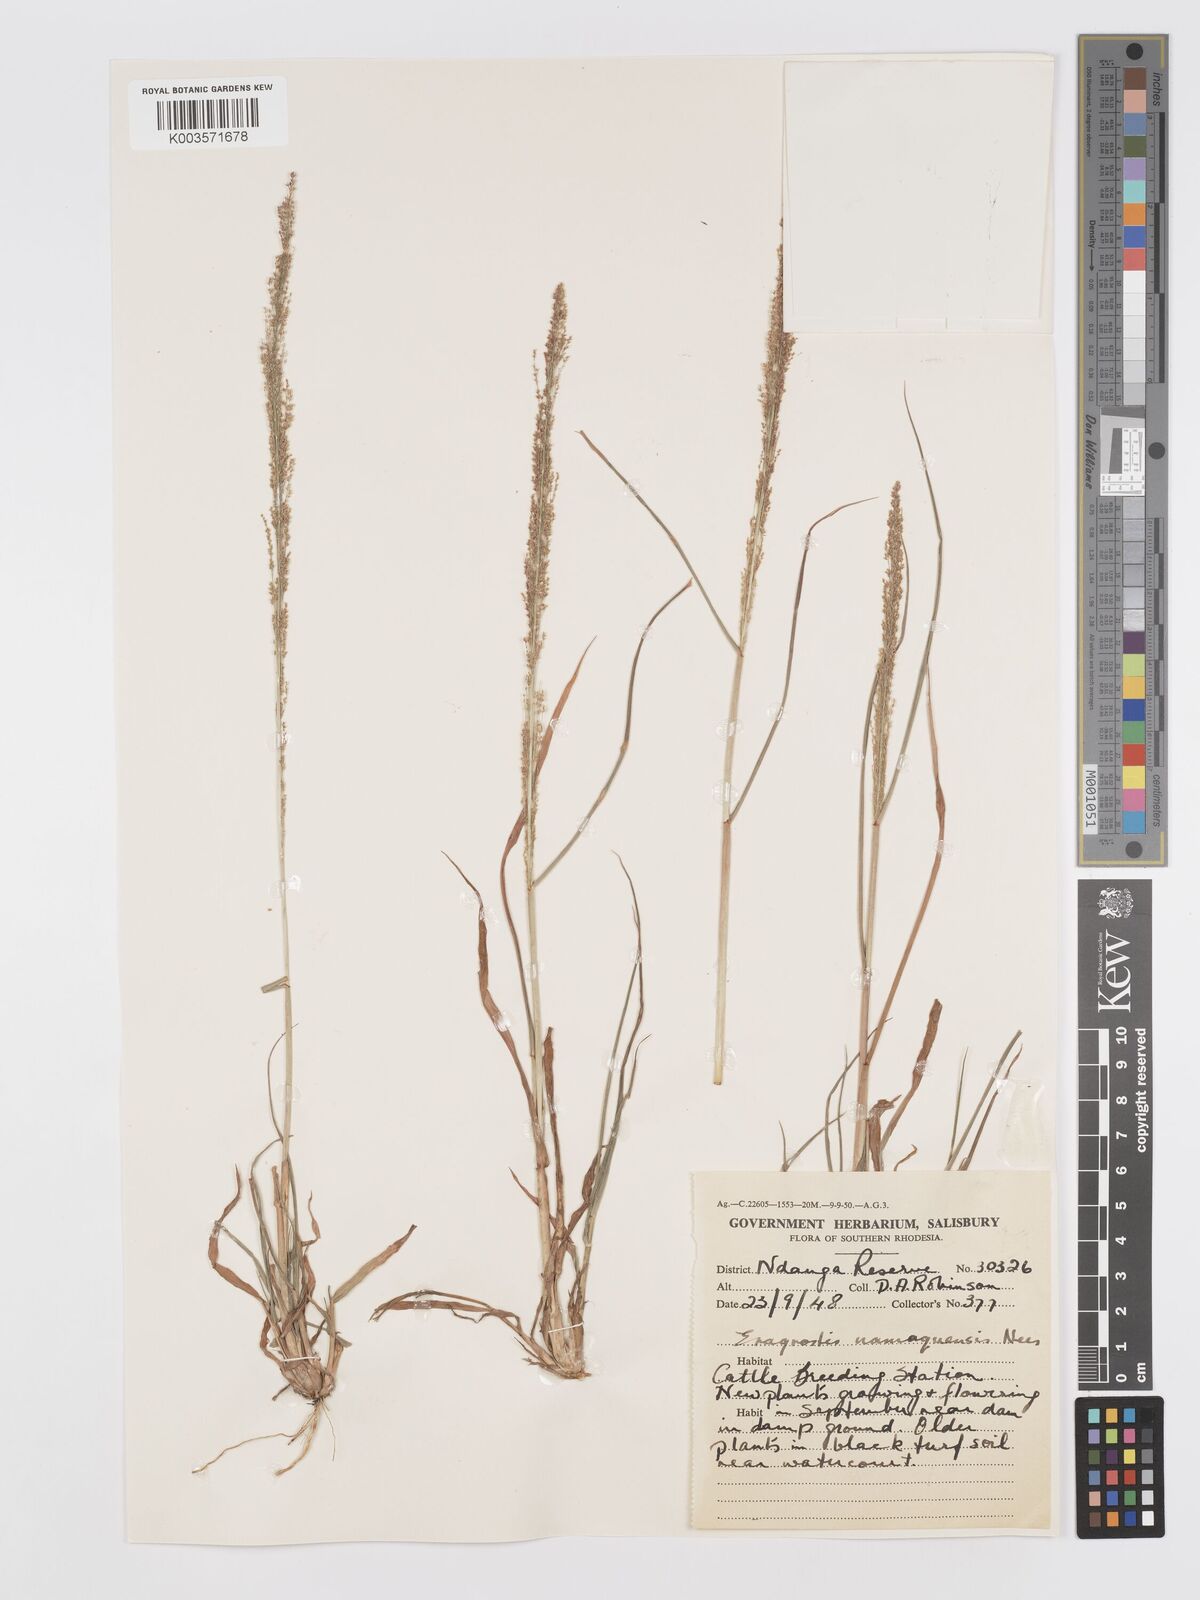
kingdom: Plantae
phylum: Tracheophyta
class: Liliopsida
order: Poales
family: Poaceae
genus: Eragrostis
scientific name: Eragrostis japonica
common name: Pond lovegrass
